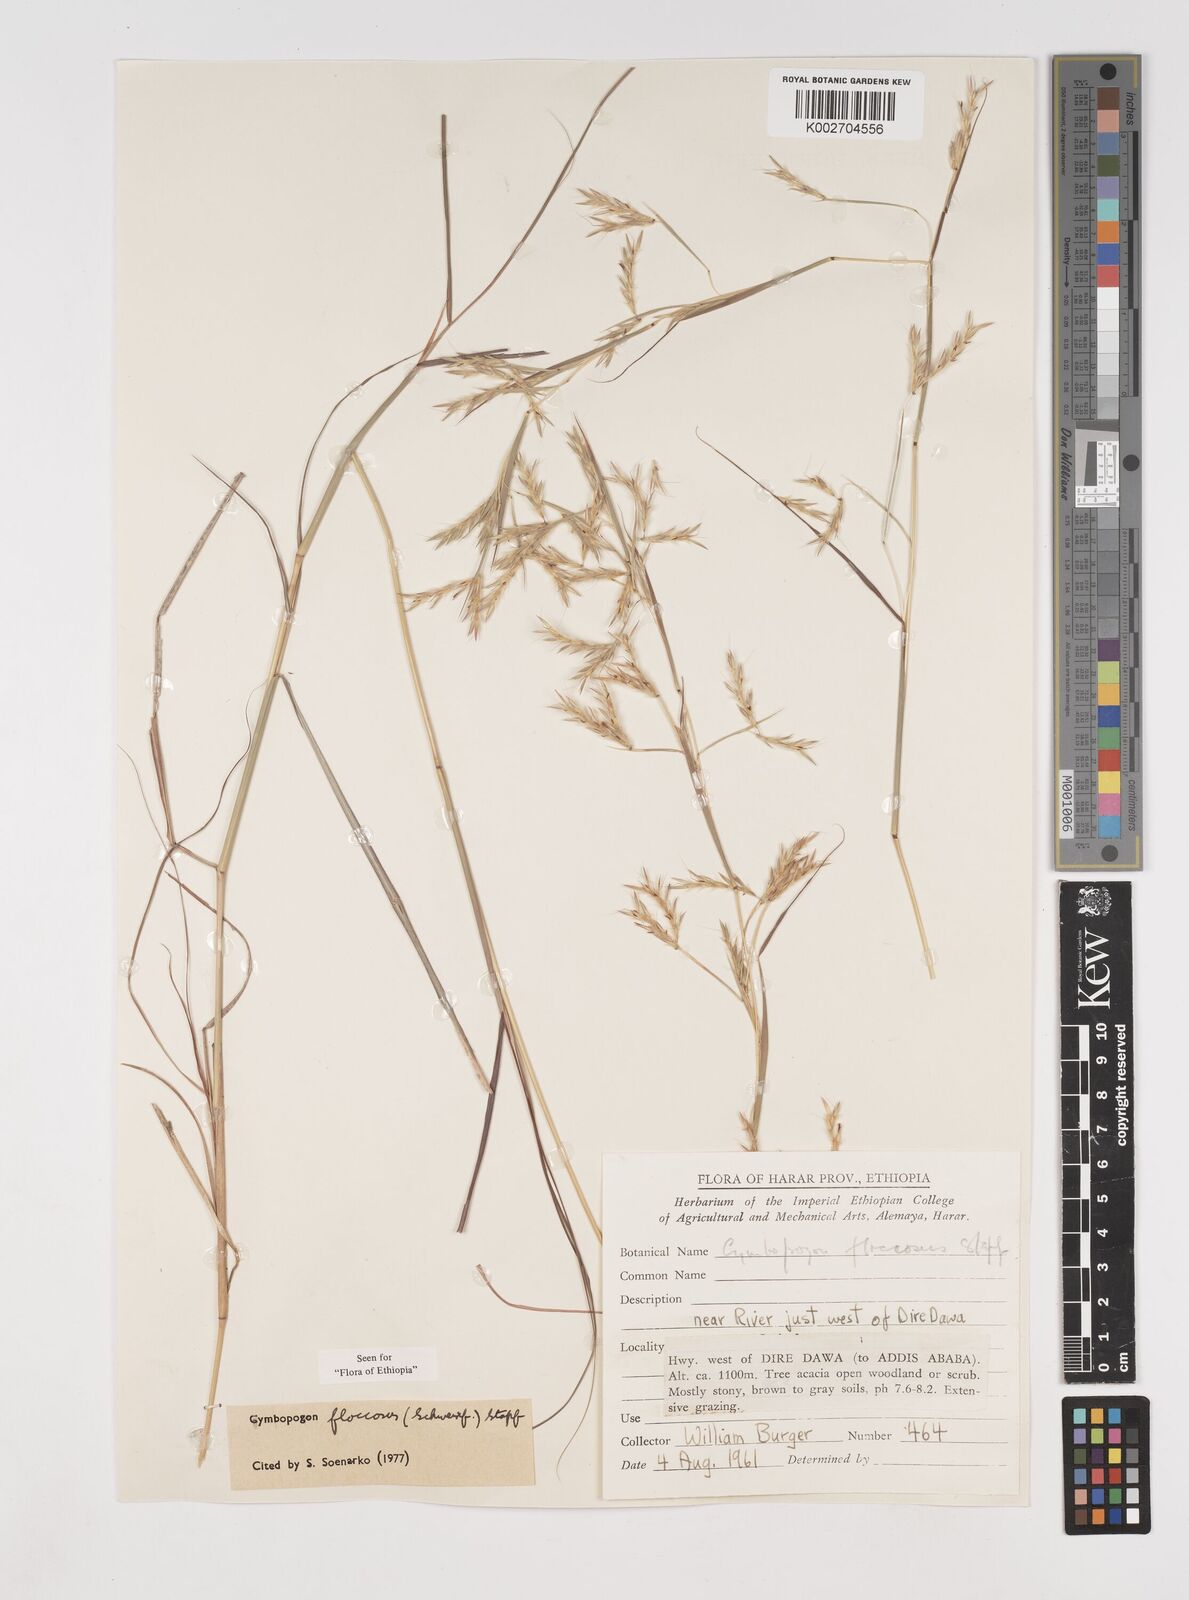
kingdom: Plantae
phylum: Tracheophyta
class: Liliopsida
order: Poales
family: Poaceae
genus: Cymbopogon
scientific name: Cymbopogon commutatus
